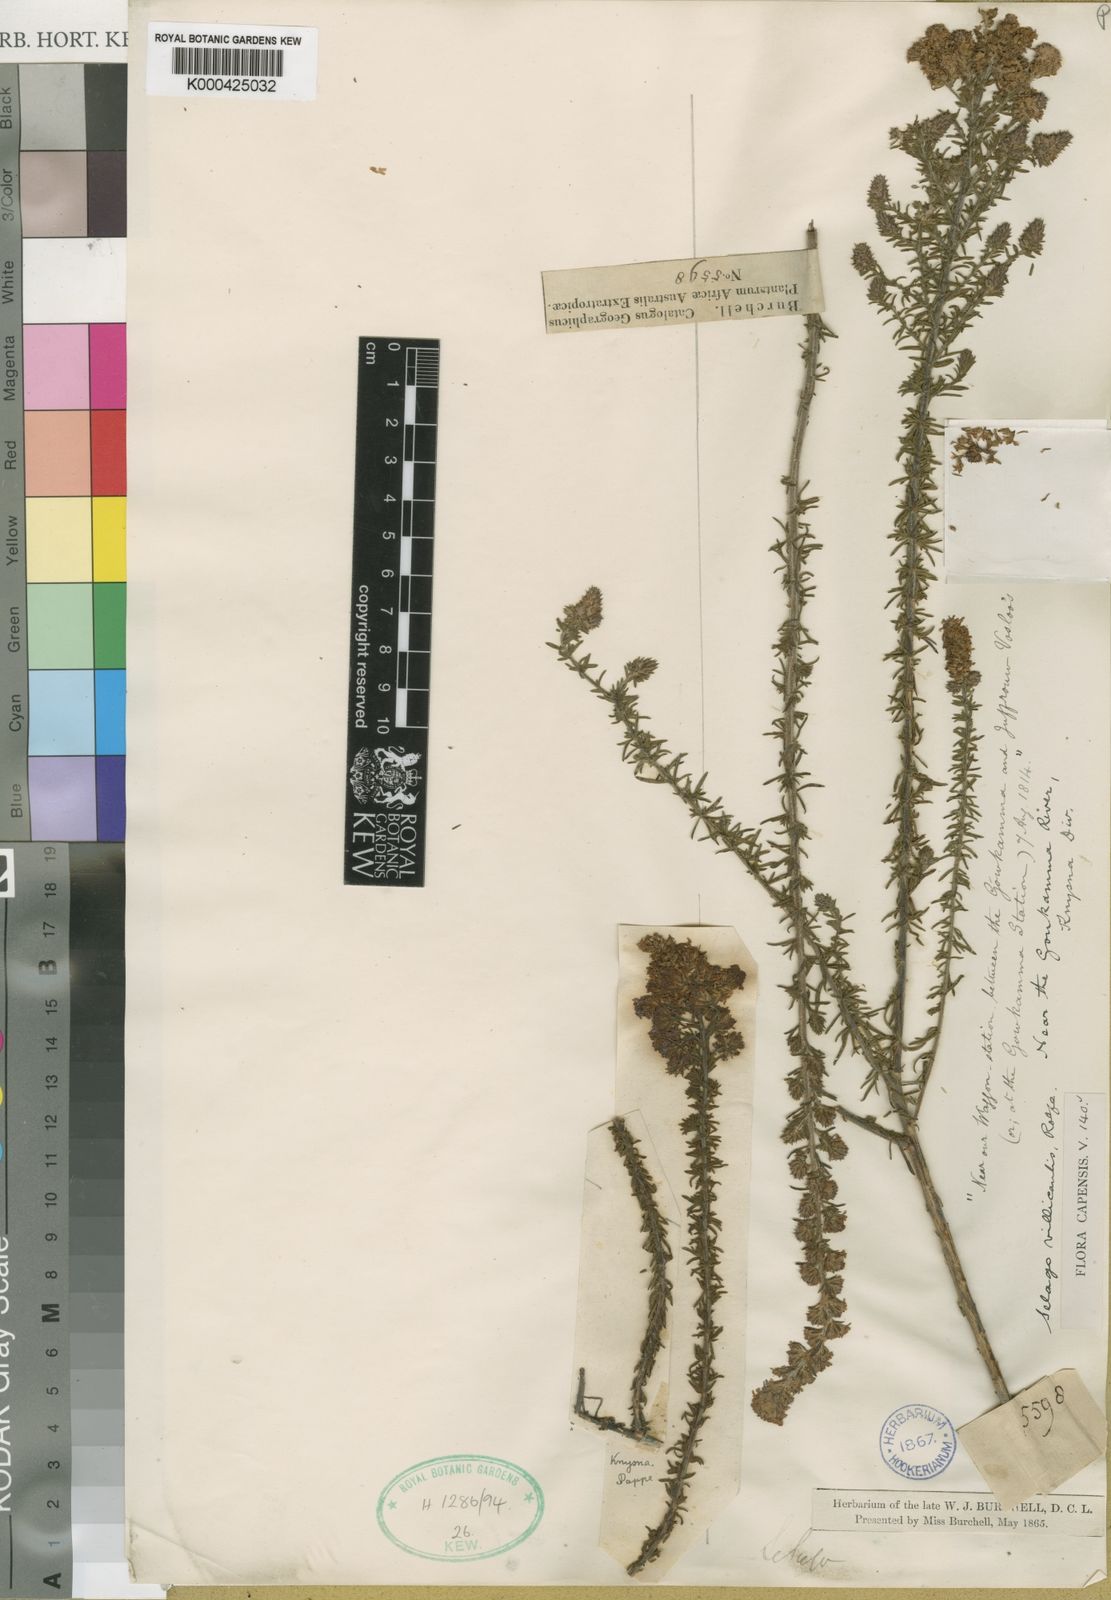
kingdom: Plantae
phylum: Tracheophyta
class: Magnoliopsida
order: Lamiales
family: Scrophulariaceae
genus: Selago
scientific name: Selago villicaulis
